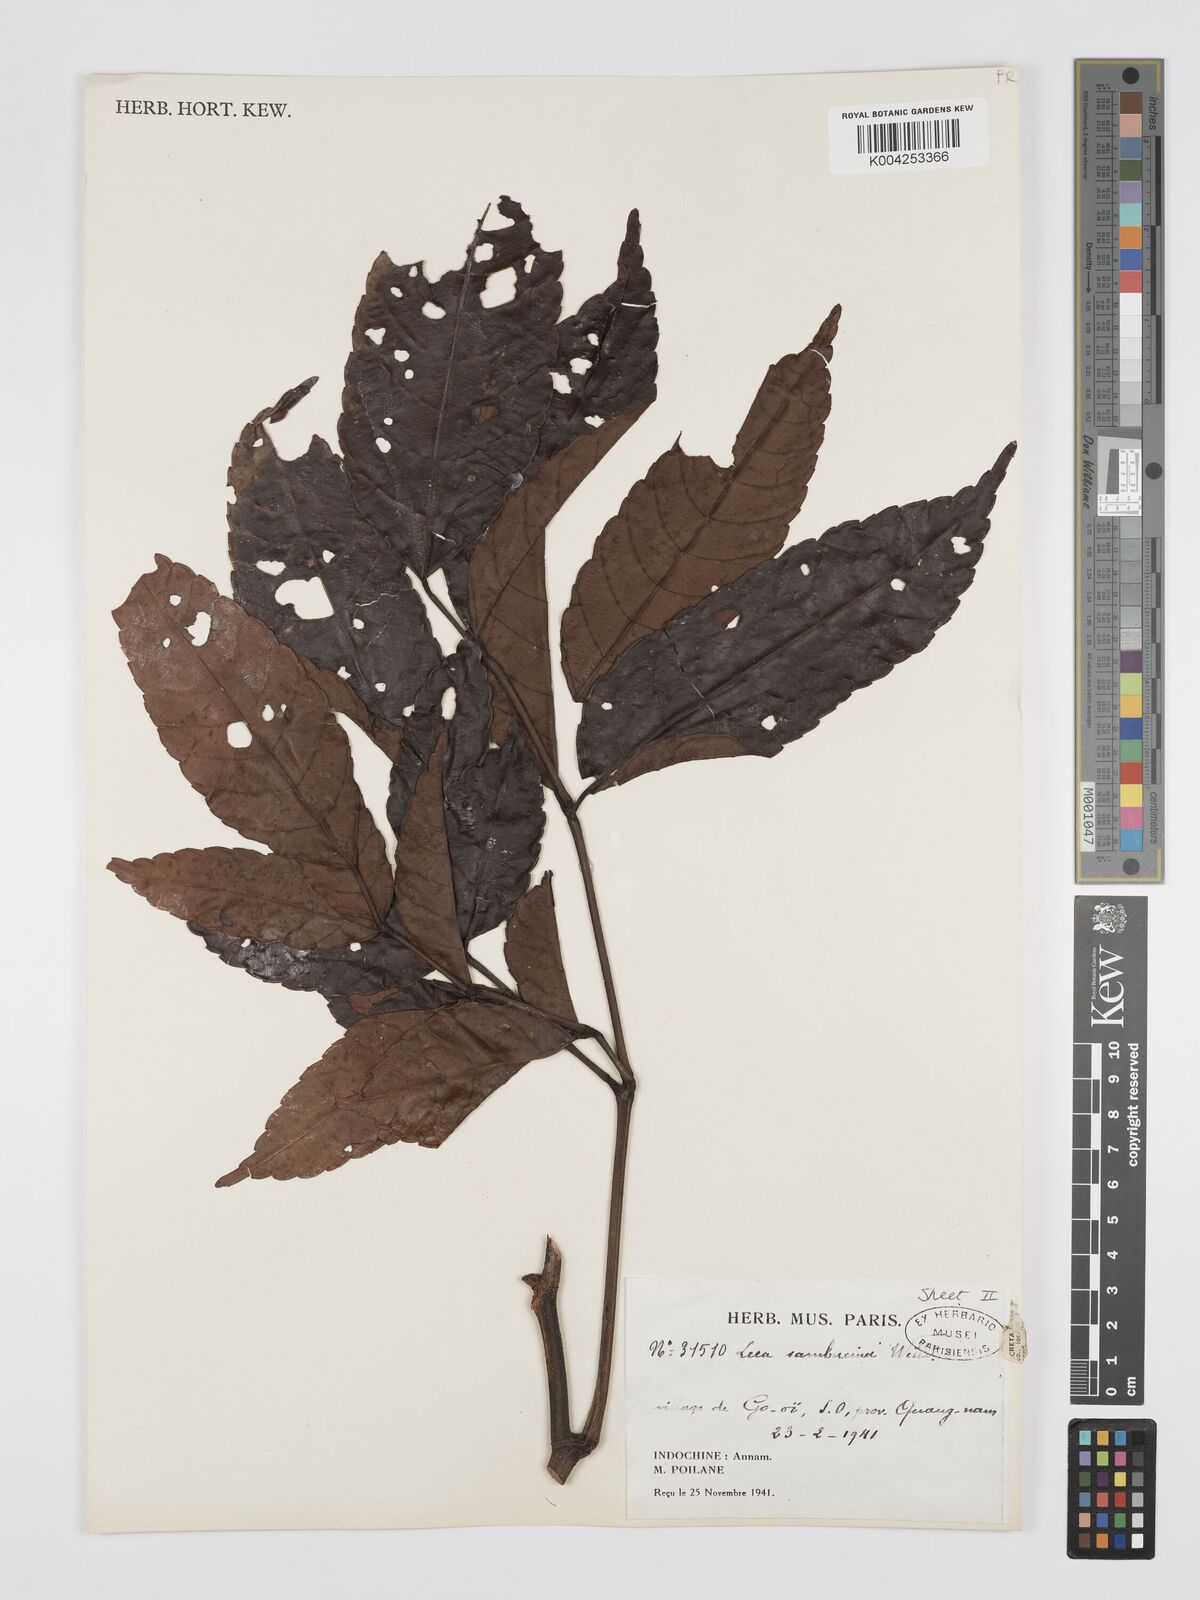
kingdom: Plantae
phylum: Tracheophyta
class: Magnoliopsida
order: Vitales
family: Vitaceae
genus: Leea
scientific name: Leea
